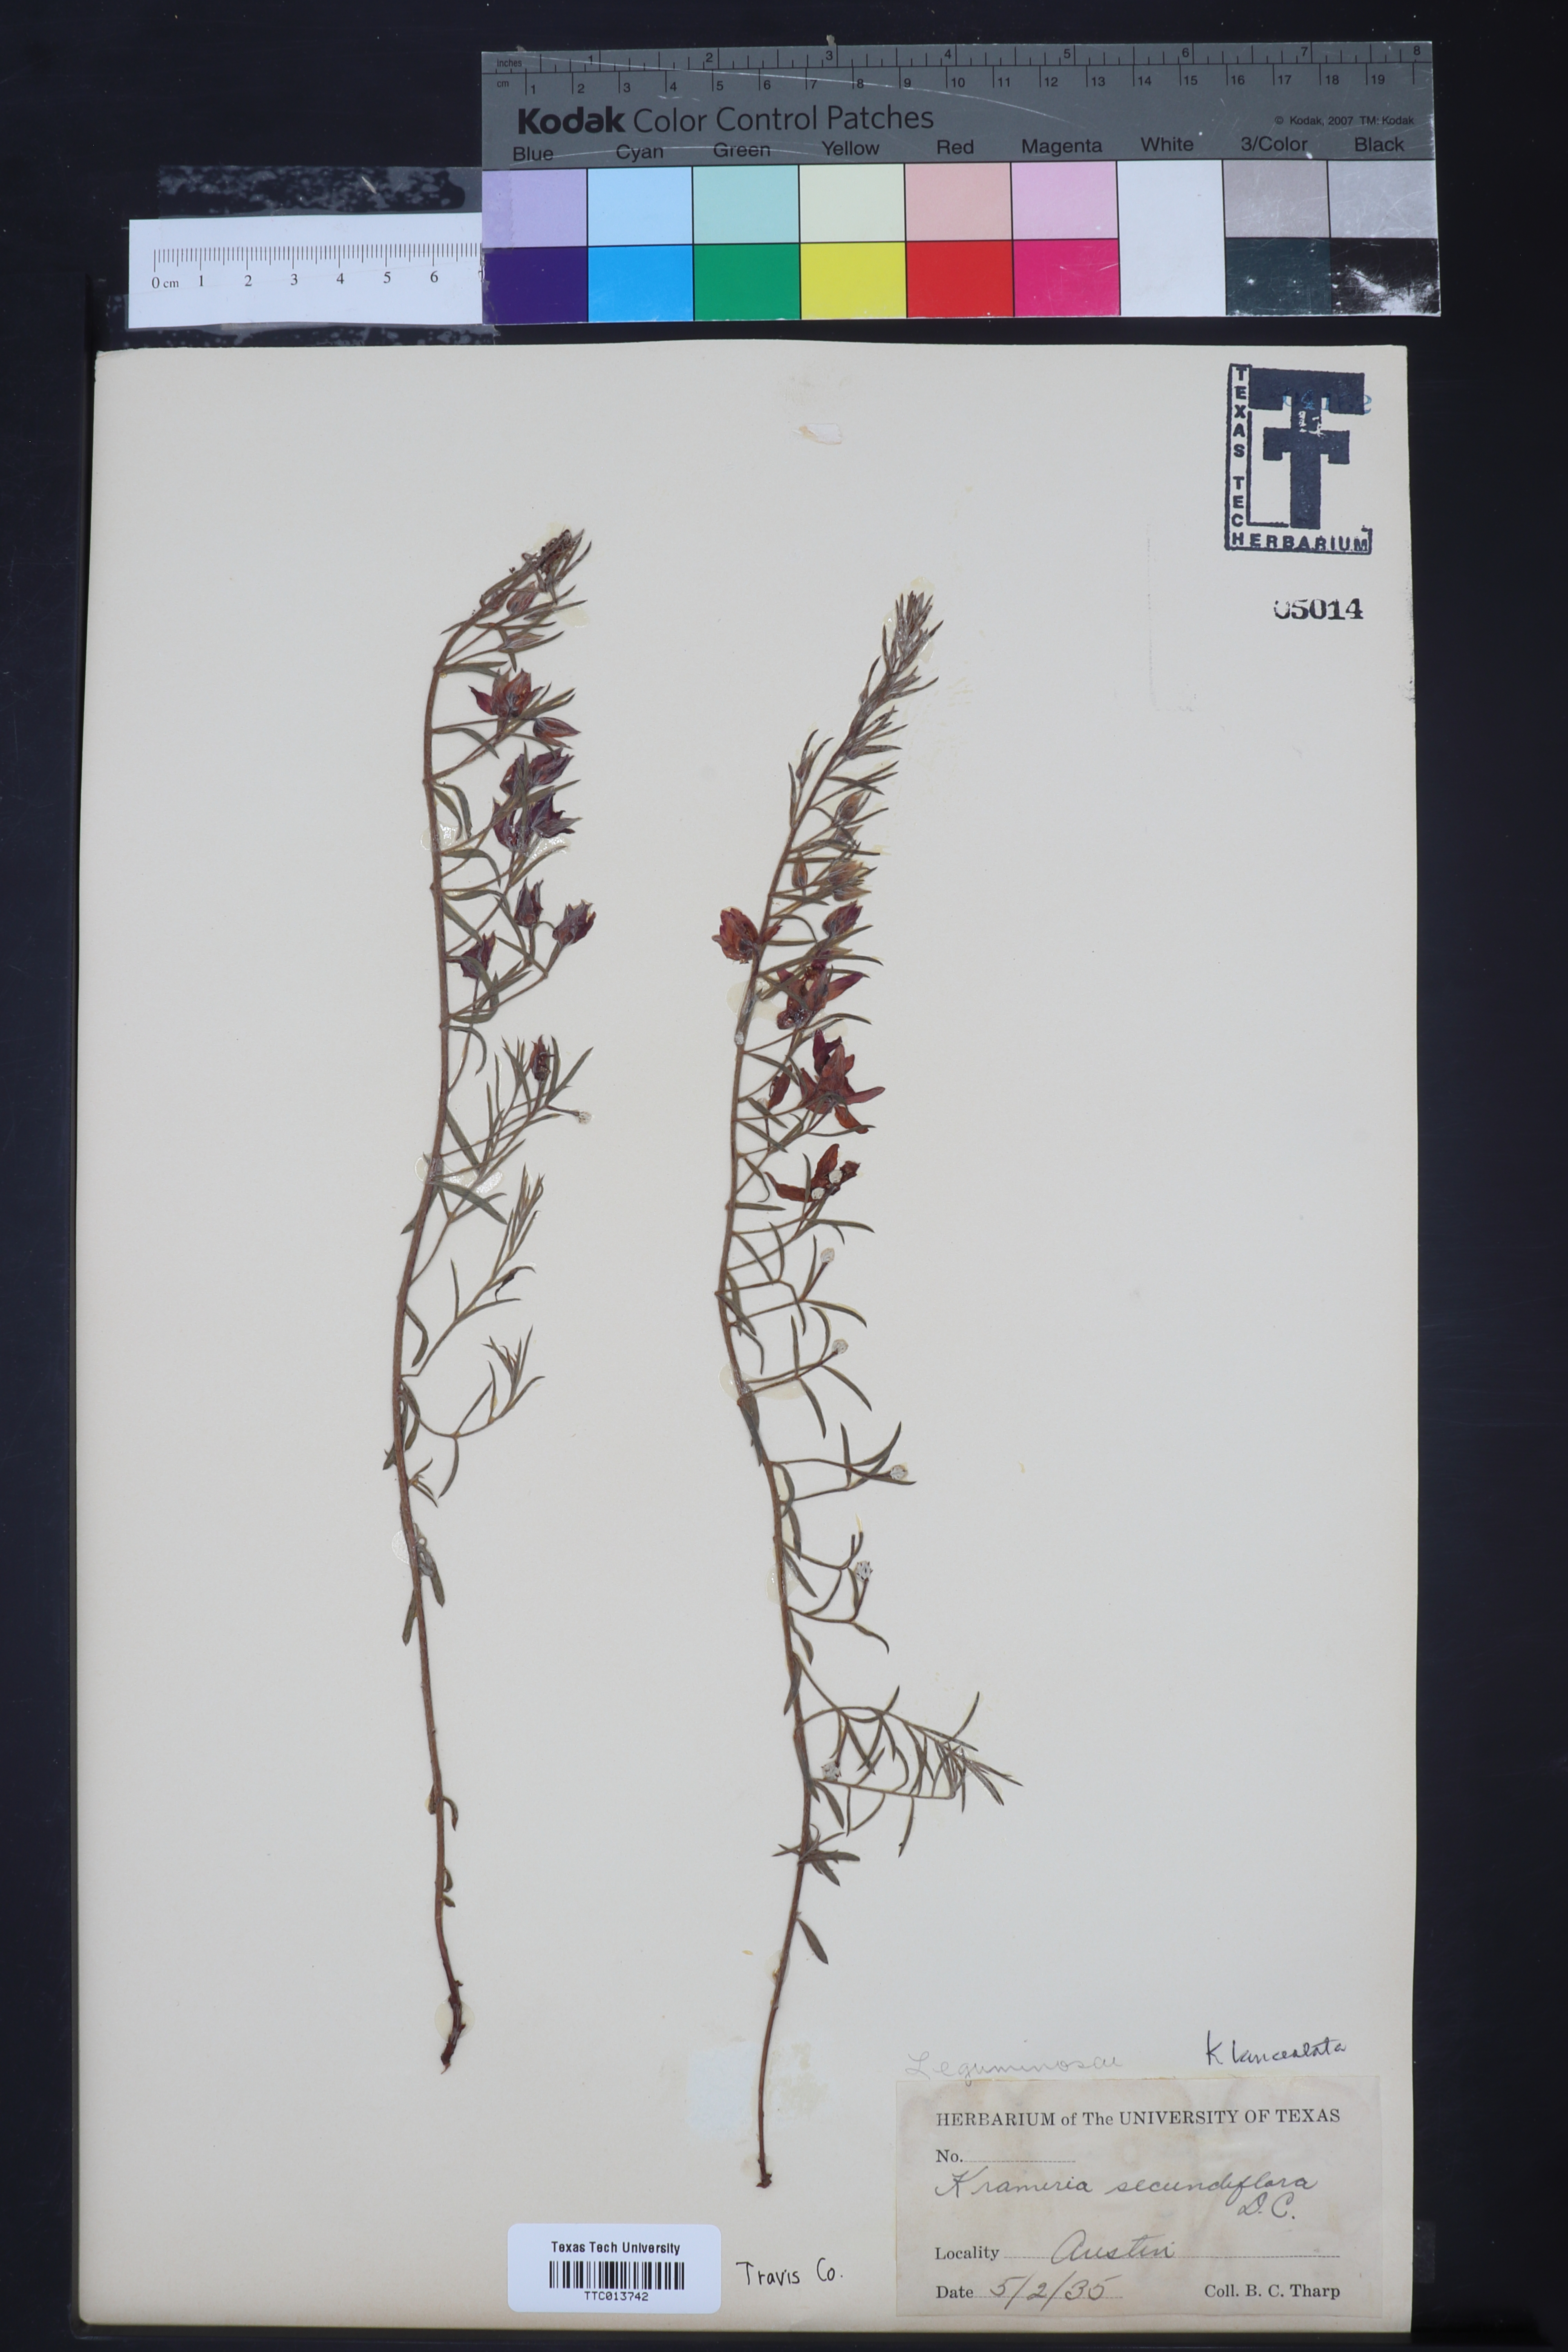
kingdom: Plantae
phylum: Tracheophyta
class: Magnoliopsida
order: Zygophyllales
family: Krameriaceae
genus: Krameria
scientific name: Krameria lanceolata
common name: Ratany
